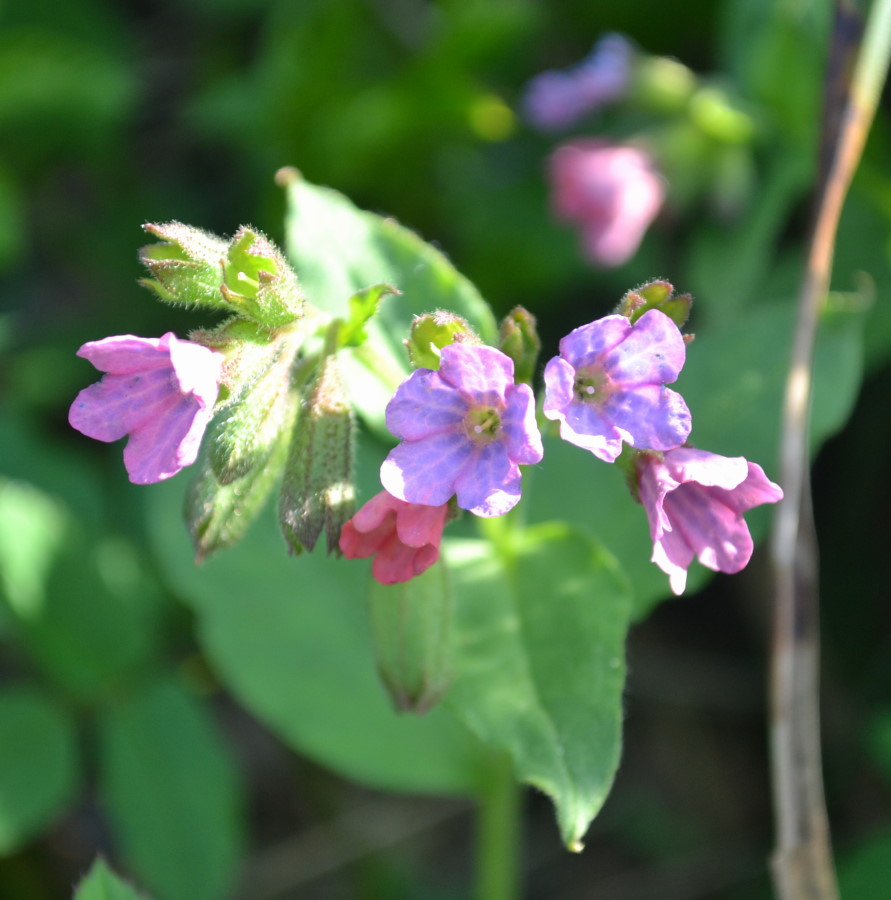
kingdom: Plantae
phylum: Tracheophyta
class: Magnoliopsida
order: Boraginales
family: Boraginaceae
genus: Pulmonaria
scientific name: Pulmonaria obscura
